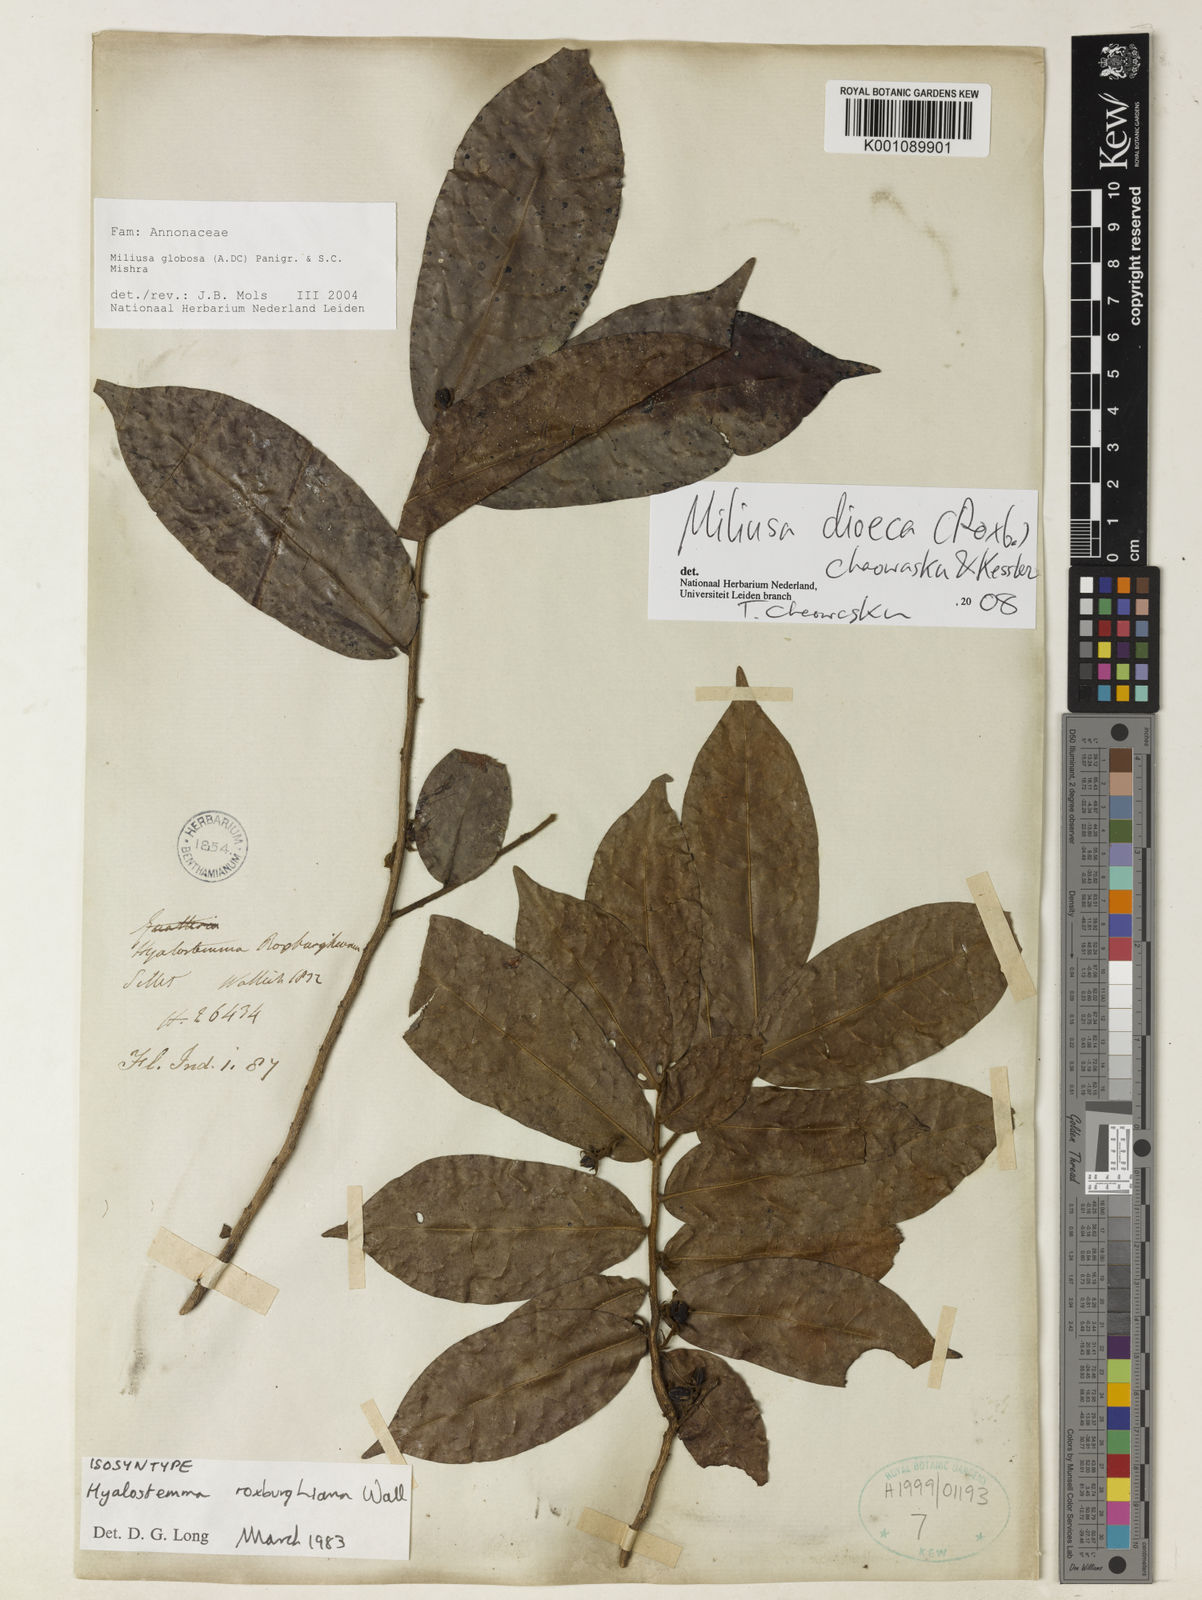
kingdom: Plantae
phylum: Tracheophyta
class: Magnoliopsida
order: Magnoliales
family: Annonaceae
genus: Hyalostemma
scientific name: Hyalostemma
